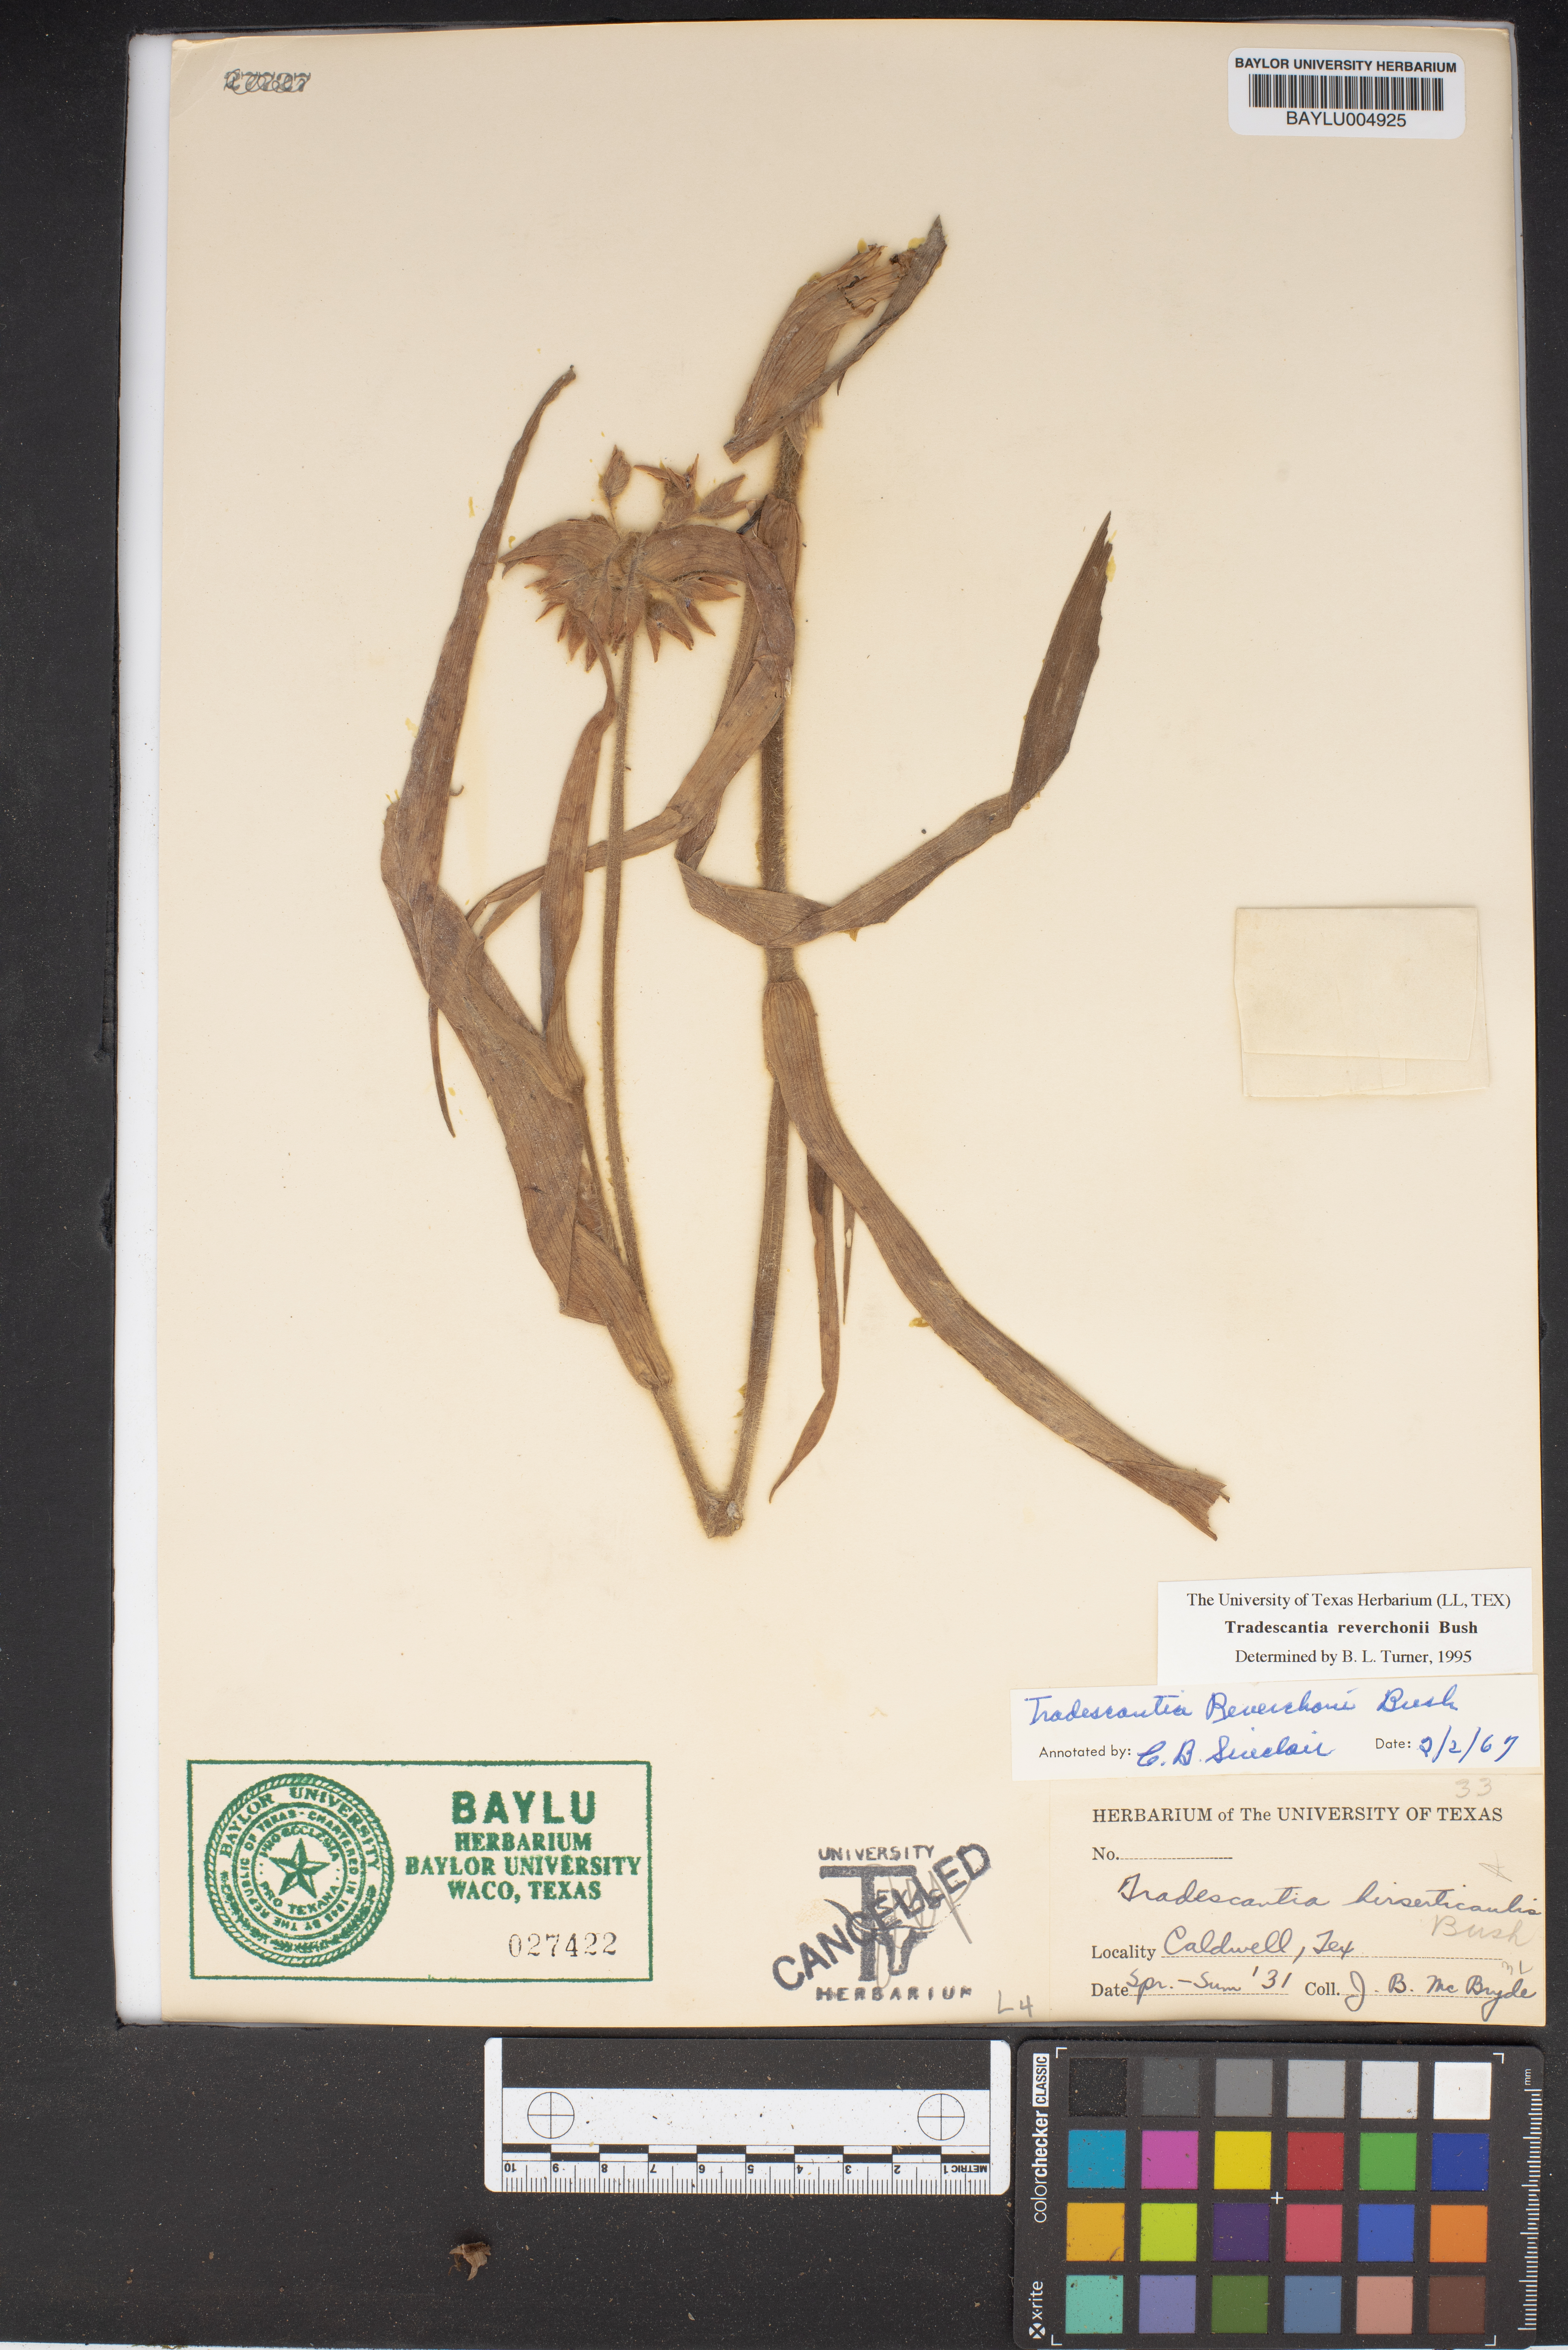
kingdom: Plantae
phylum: Tracheophyta
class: Liliopsida
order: Commelinales
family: Commelinaceae
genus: Tradescantia
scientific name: Tradescantia reverchonii
